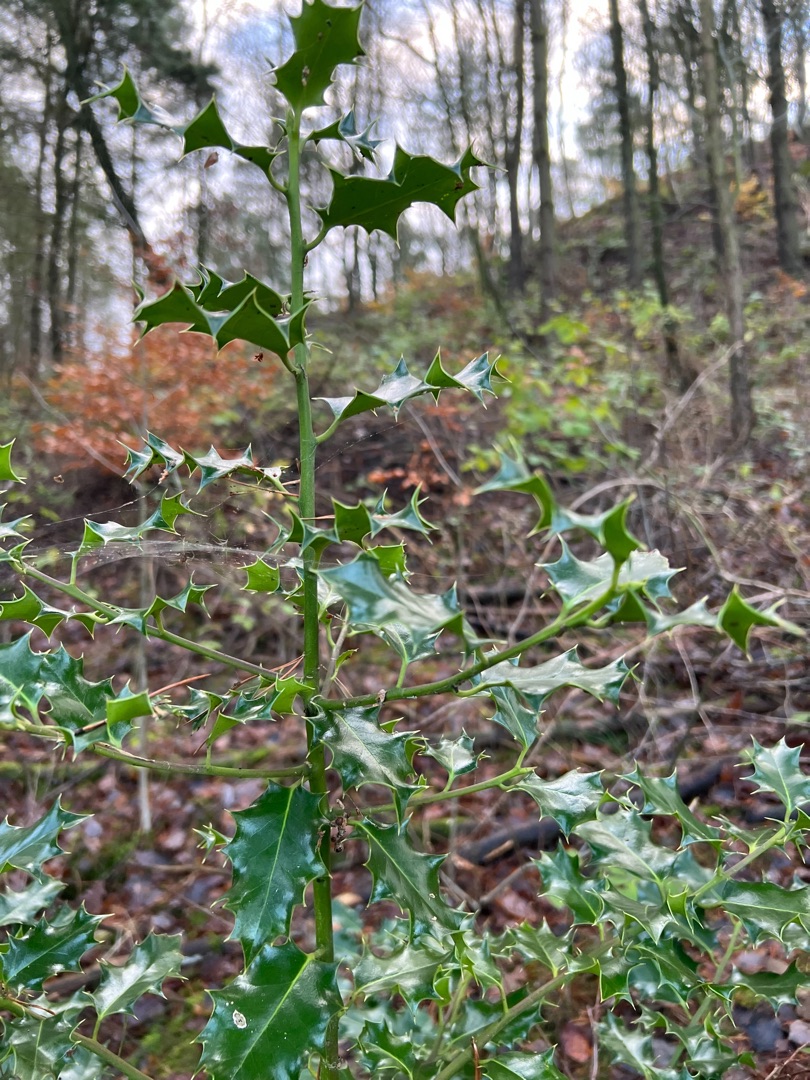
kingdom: Plantae
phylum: Tracheophyta
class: Magnoliopsida
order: Aquifoliales
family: Aquifoliaceae
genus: Ilex
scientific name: Ilex aquifolium
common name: Kristtorn
